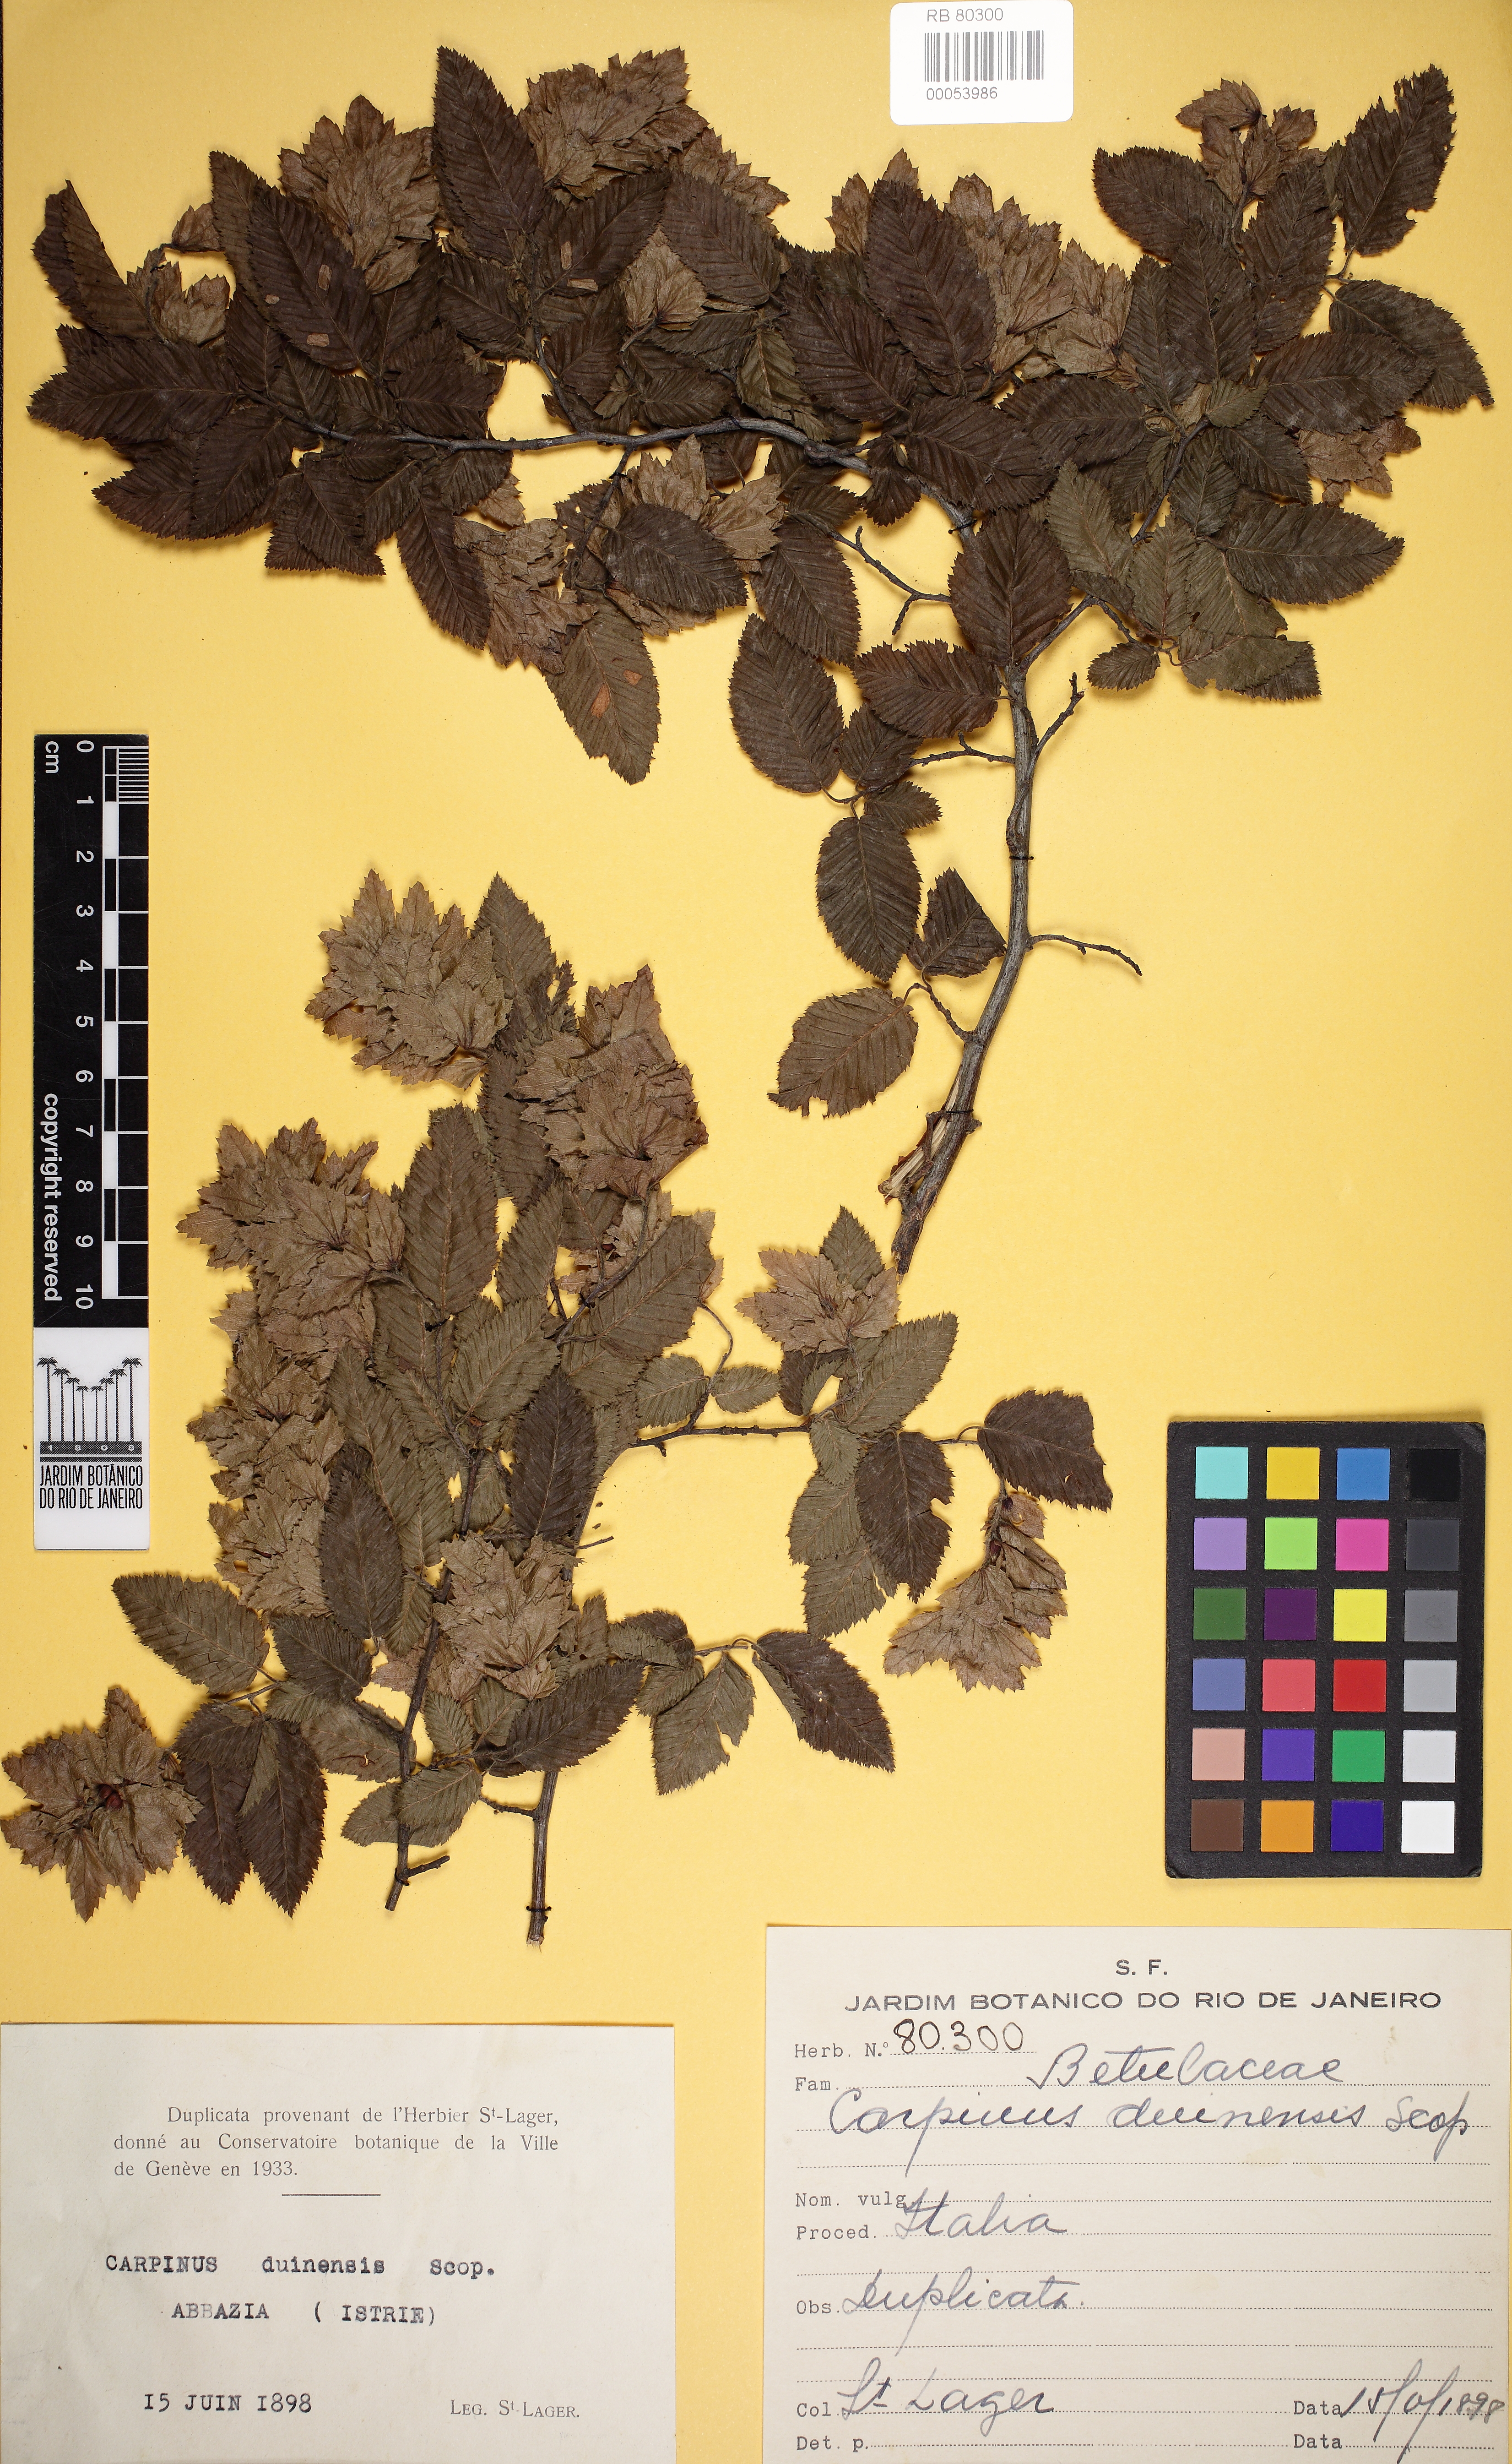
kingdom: Plantae
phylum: Tracheophyta
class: Magnoliopsida
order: Fagales
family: Betulaceae
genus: Carpinus
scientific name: Carpinus orientalis
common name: Eastern hornbeam
